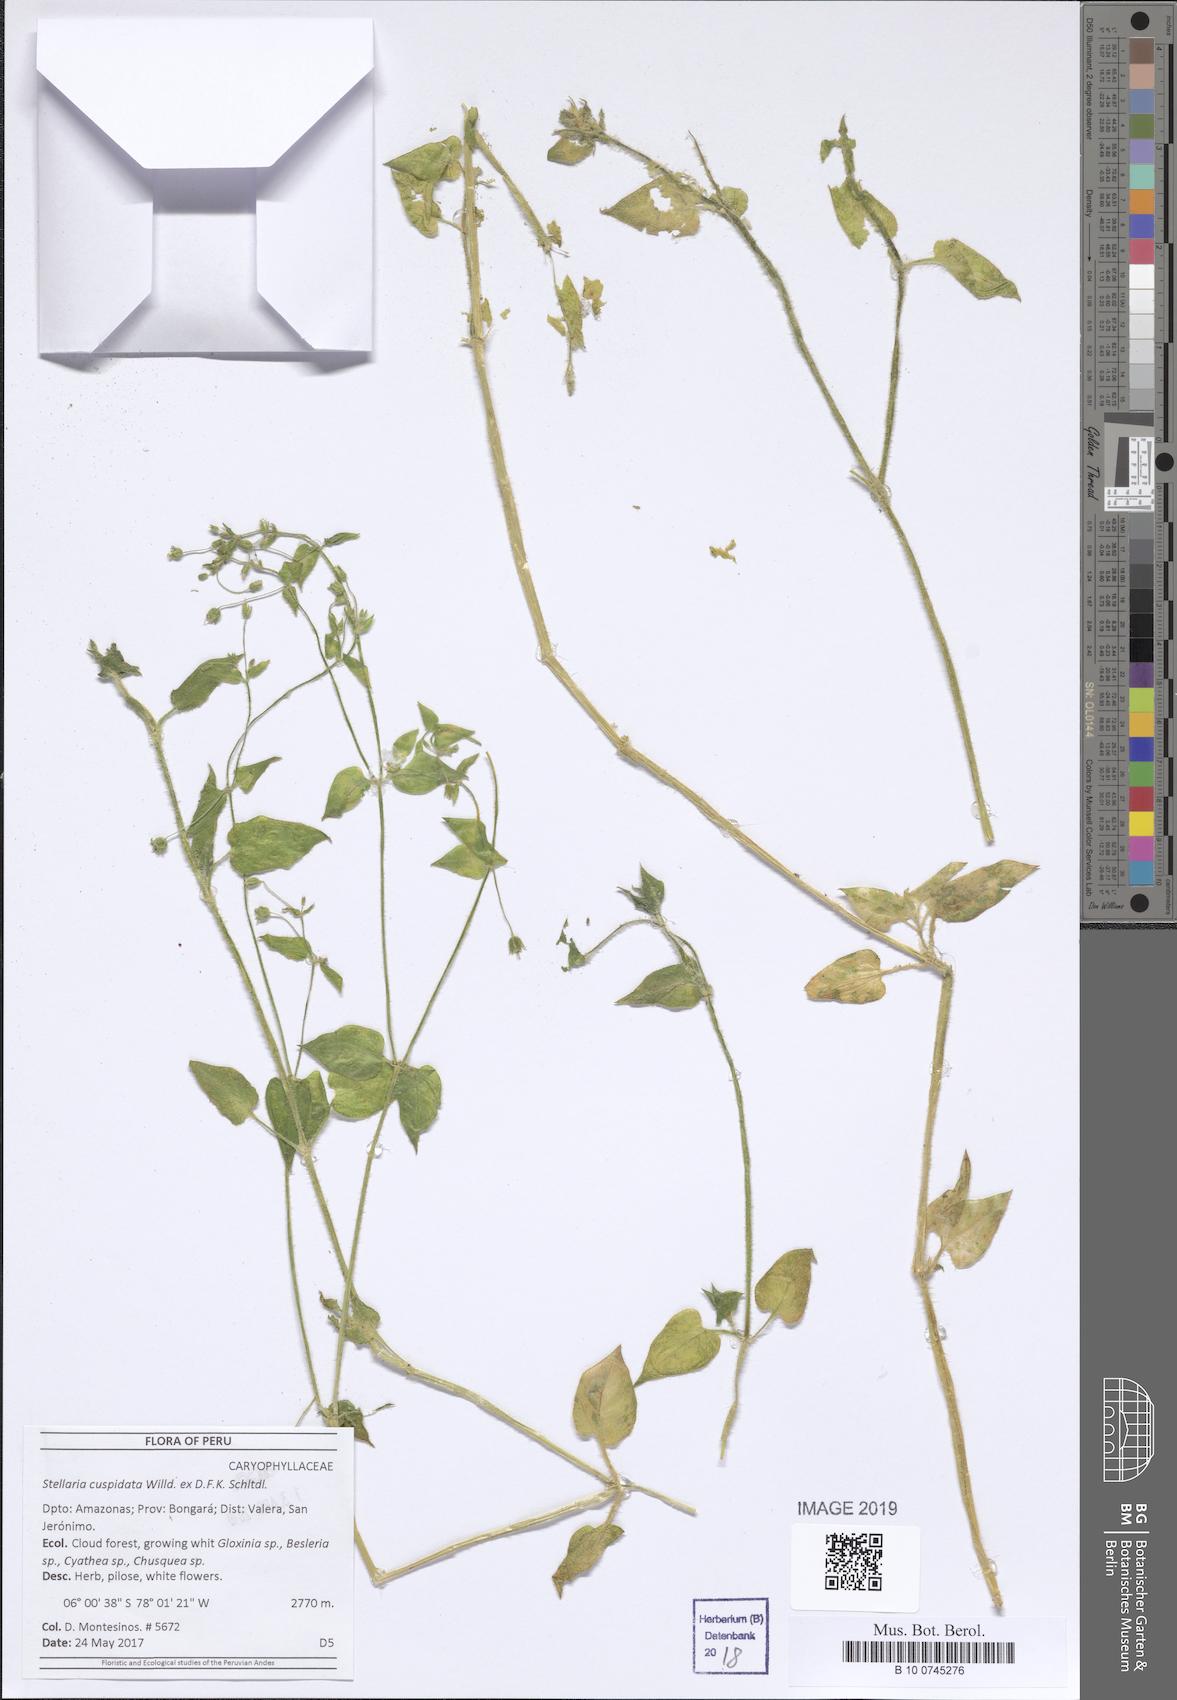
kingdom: Plantae
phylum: Tracheophyta
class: Magnoliopsida
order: Caryophyllales
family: Caryophyllaceae
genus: Stellaria
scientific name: Stellaria cuspidata
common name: Mexican chickweed
